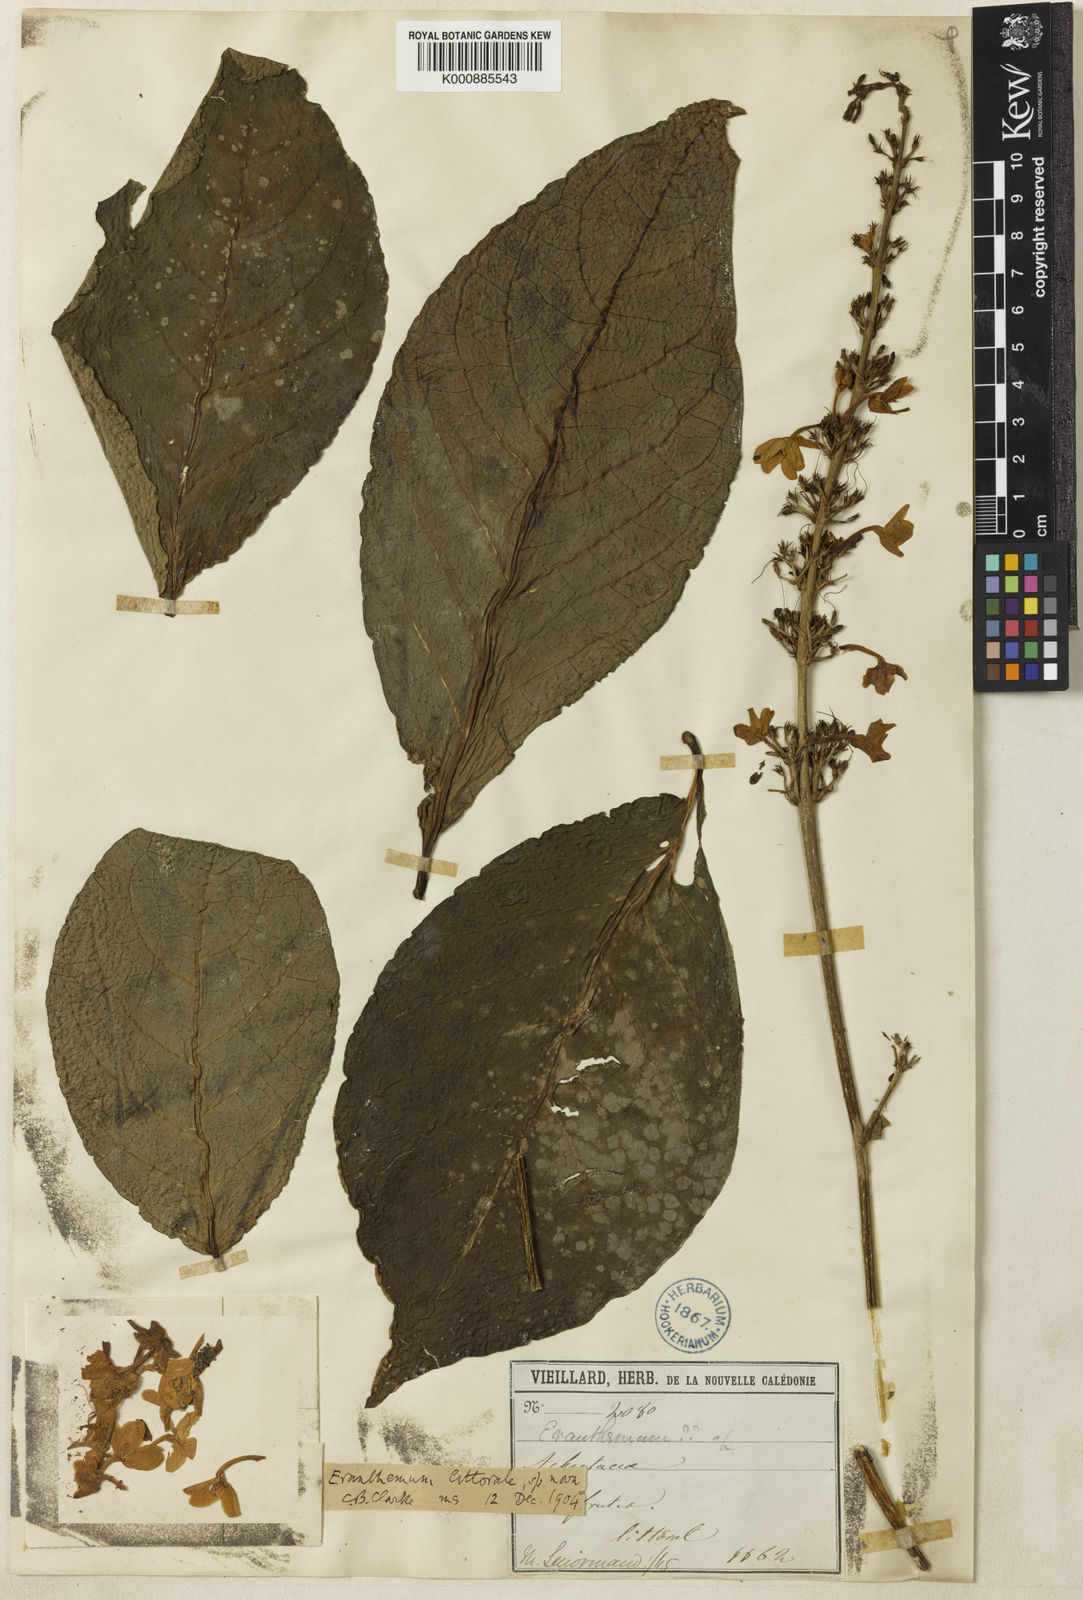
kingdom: Plantae
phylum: Tracheophyta
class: Magnoliopsida
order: Lamiales
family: Acanthaceae
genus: Pseuderanthemum
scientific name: Pseuderanthemum longifolium
